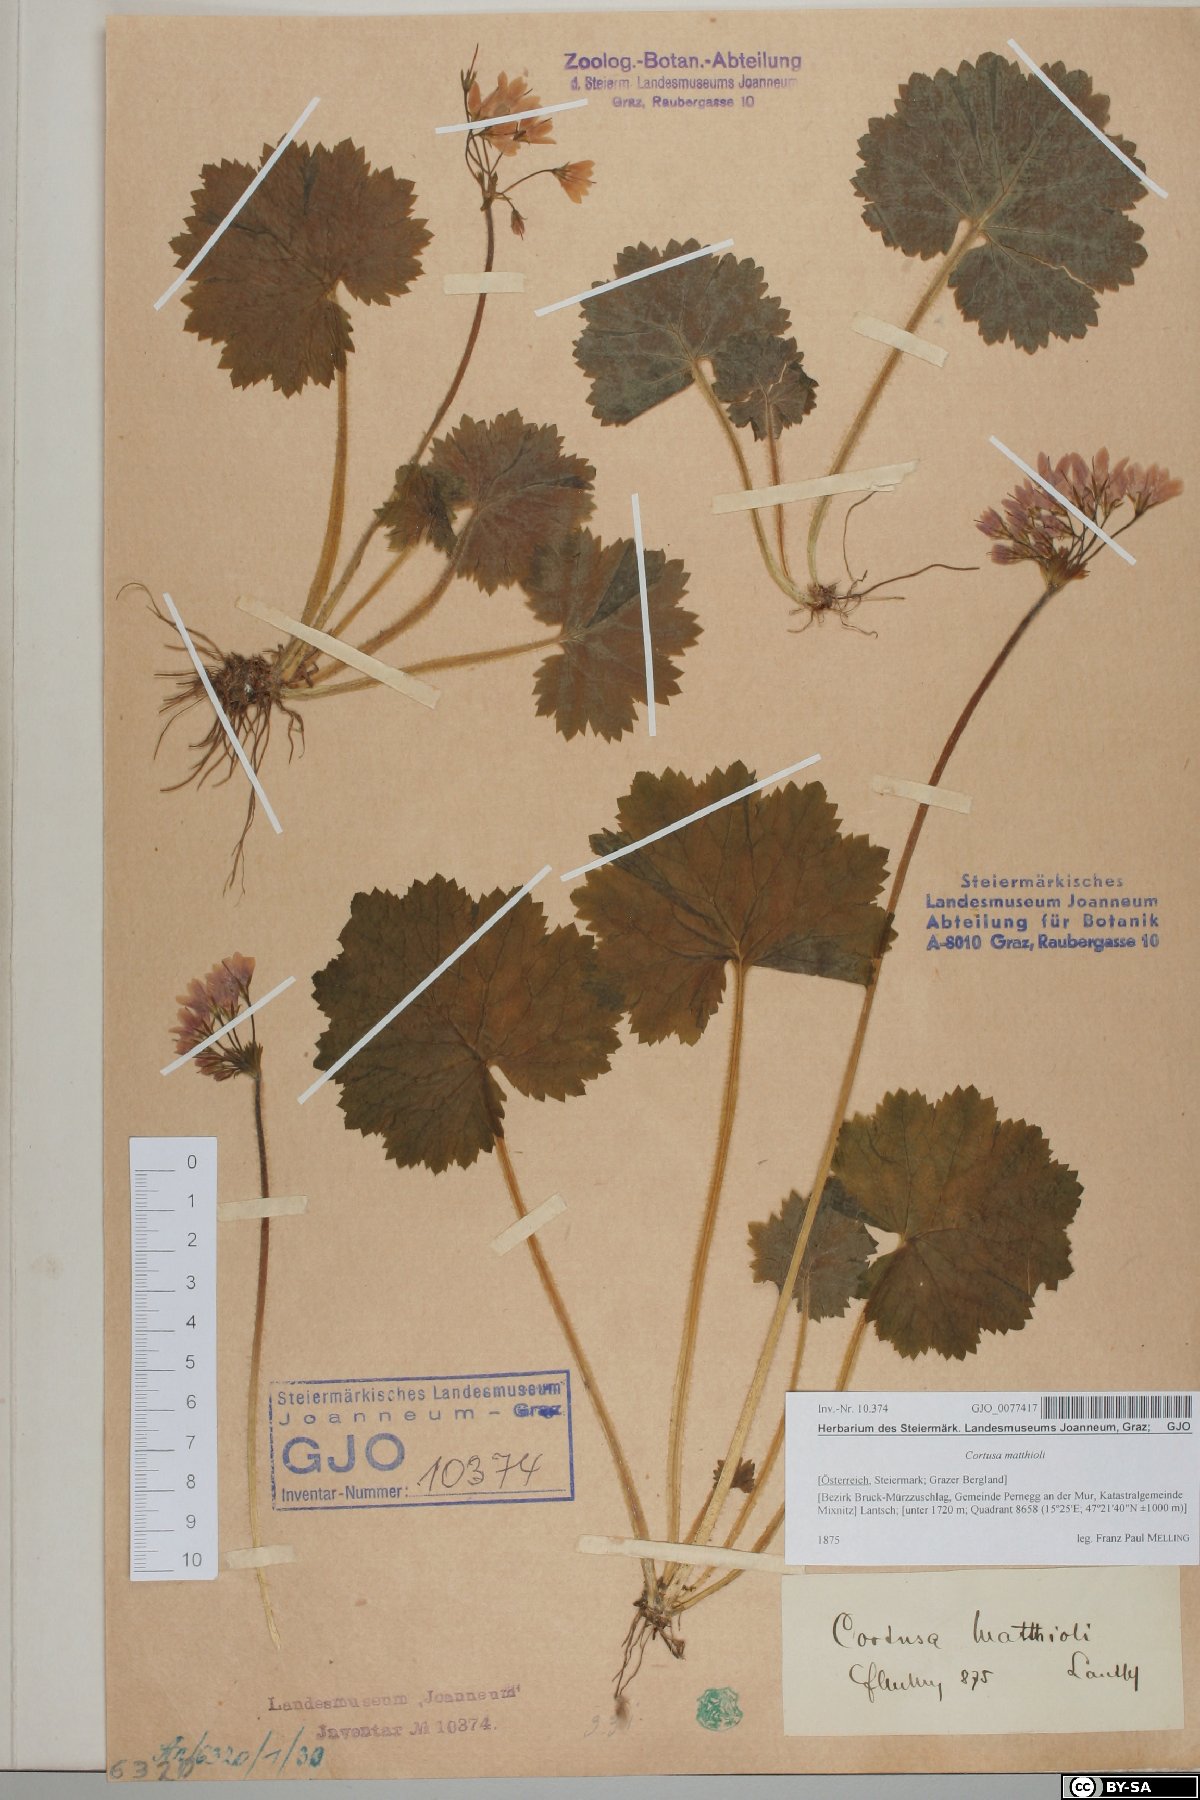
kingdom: Plantae
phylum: Tracheophyta
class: Magnoliopsida
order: Ericales
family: Primulaceae
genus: Primula
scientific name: Primula matthioli
